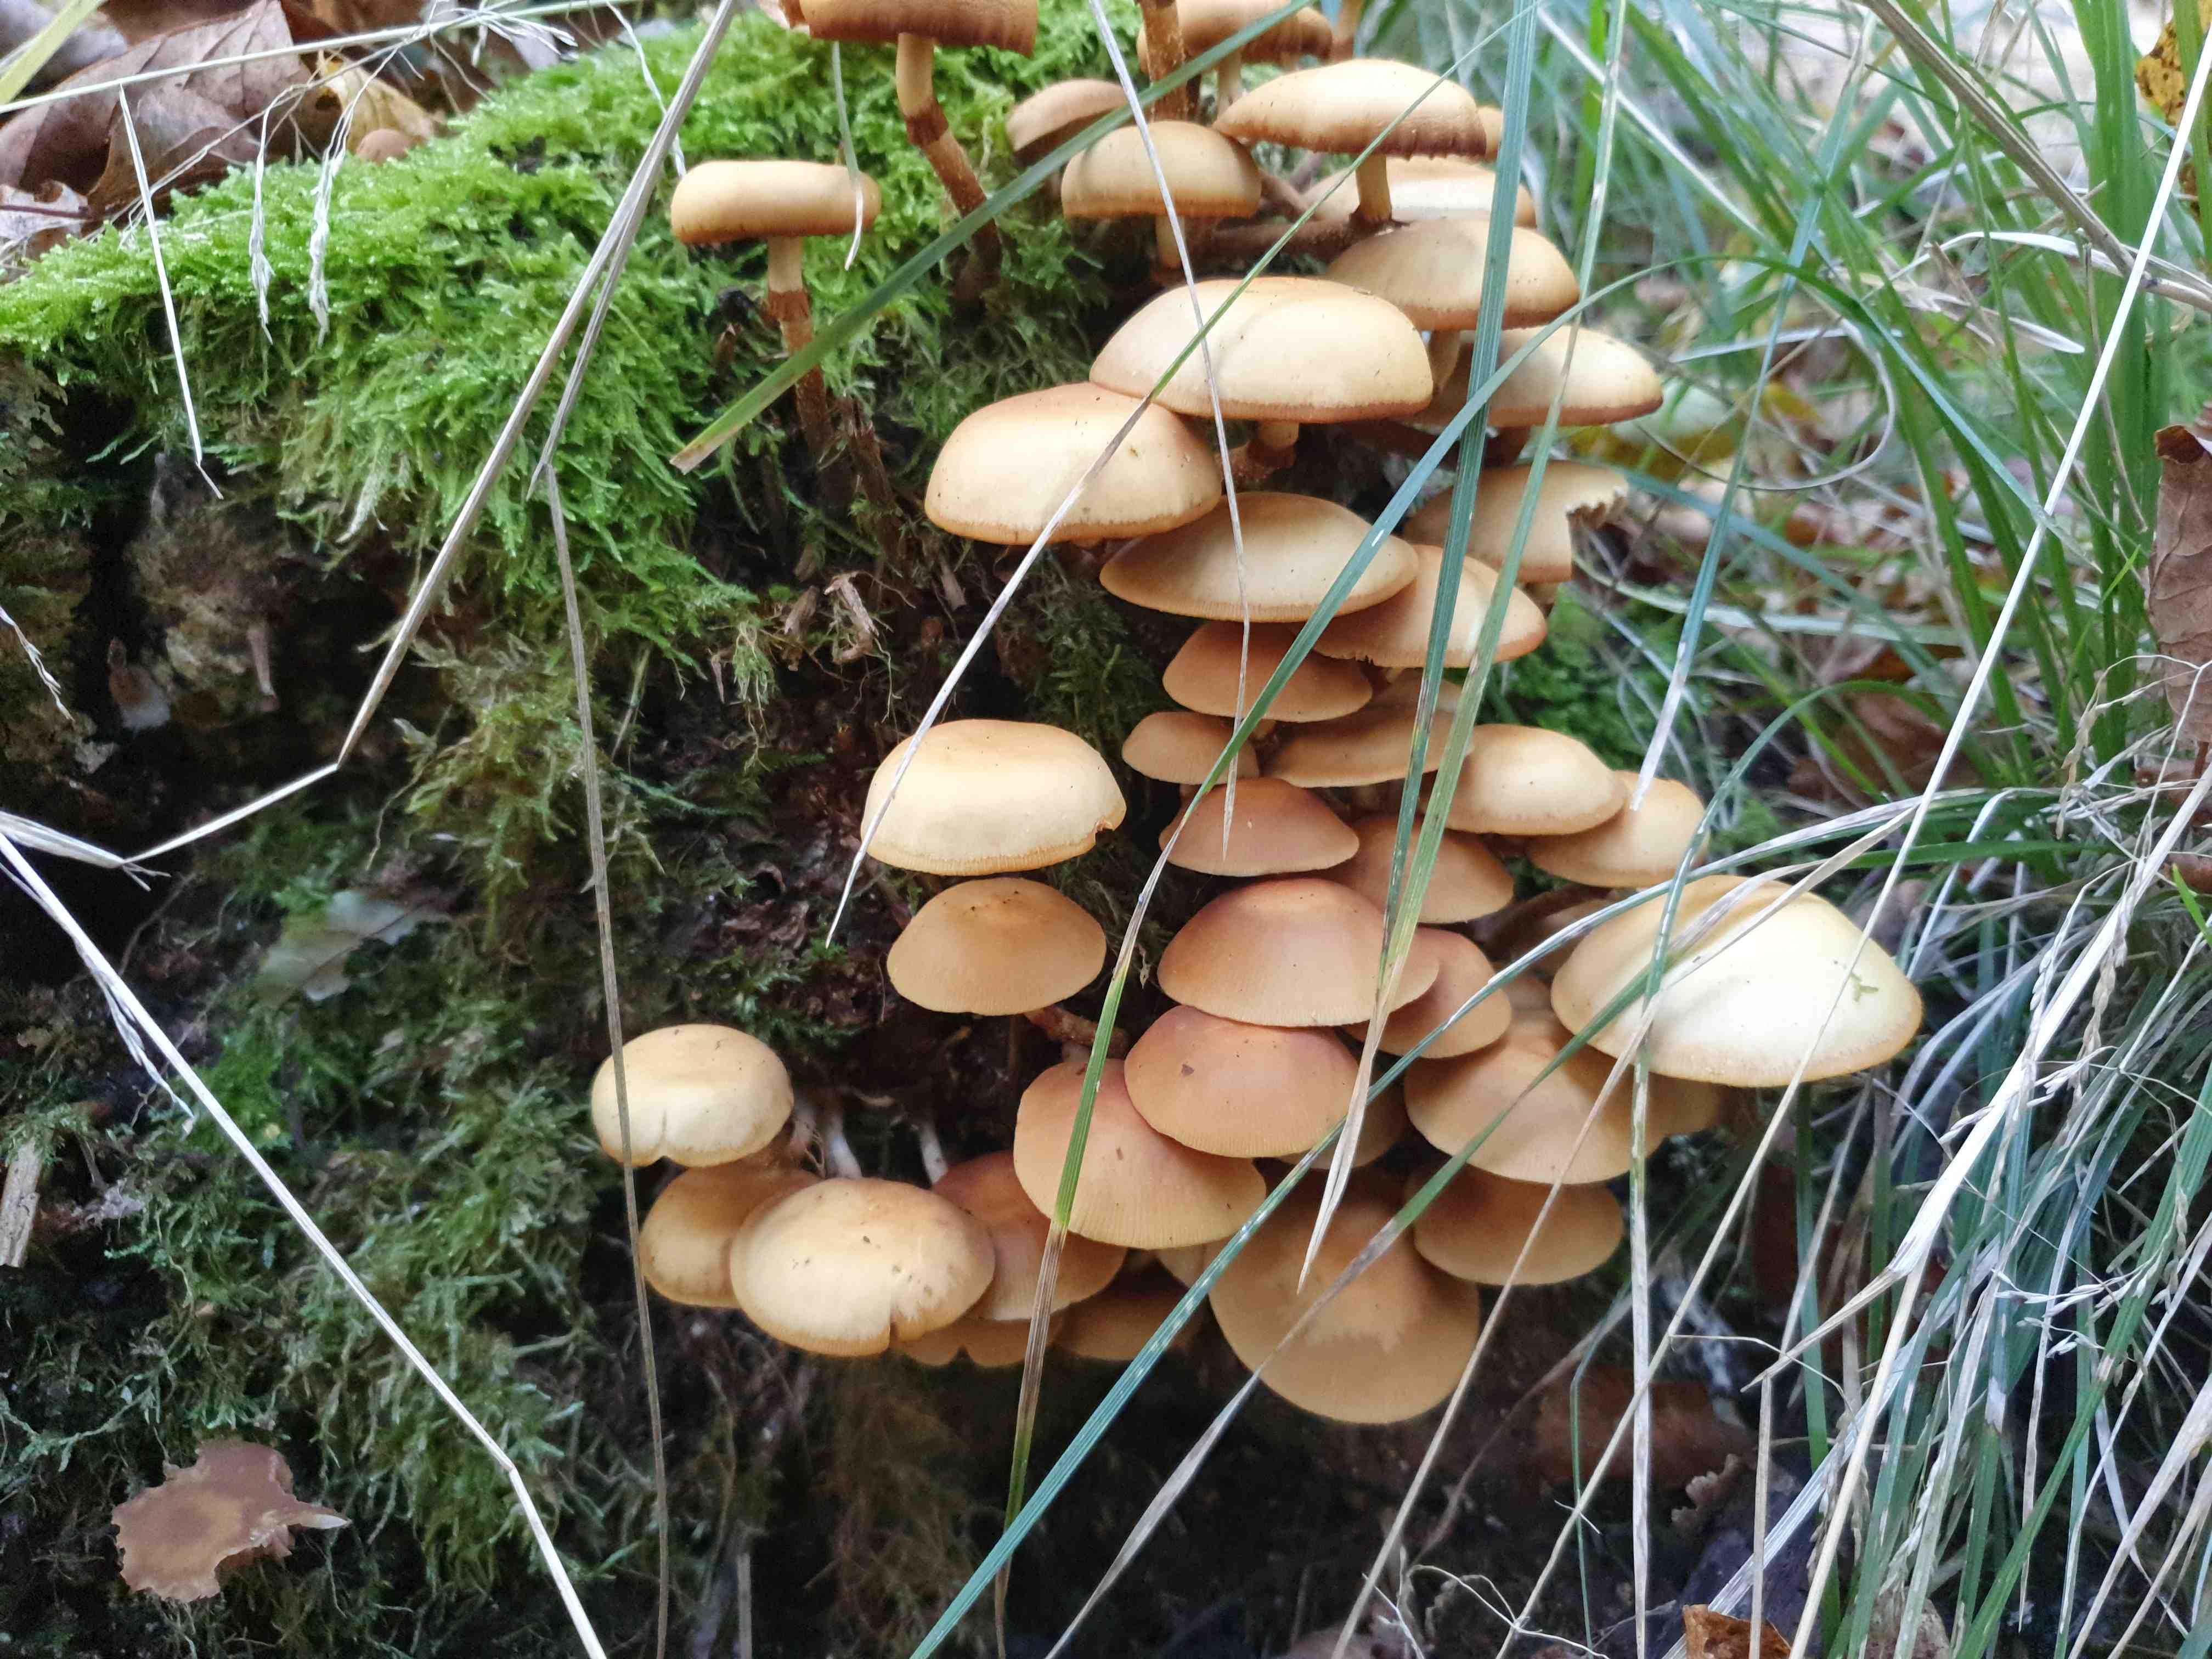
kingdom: Fungi
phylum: Basidiomycota
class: Agaricomycetes
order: Agaricales
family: Strophariaceae
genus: Kuehneromyces
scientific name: Kuehneromyces mutabilis
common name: foranderlig skælhat
